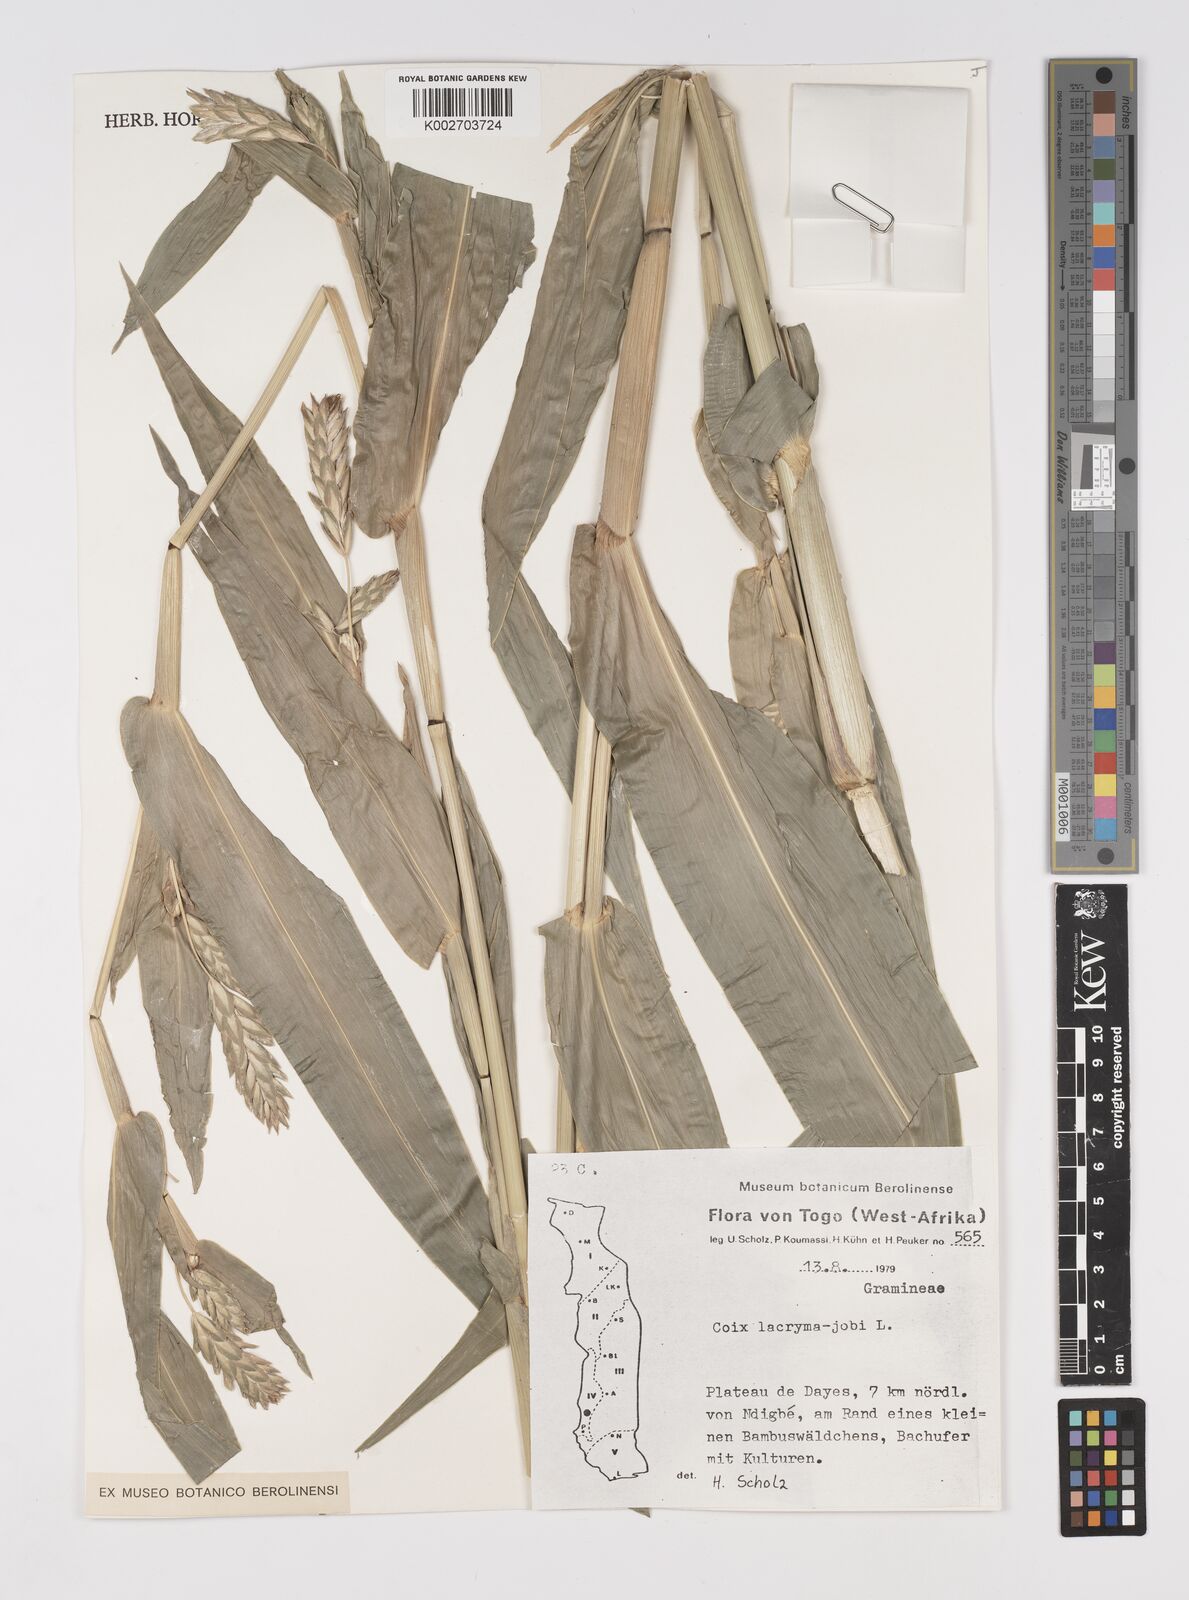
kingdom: Plantae
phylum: Tracheophyta
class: Liliopsida
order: Poales
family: Poaceae
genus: Coix
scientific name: Coix lacryma-jobi
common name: Job's tears
